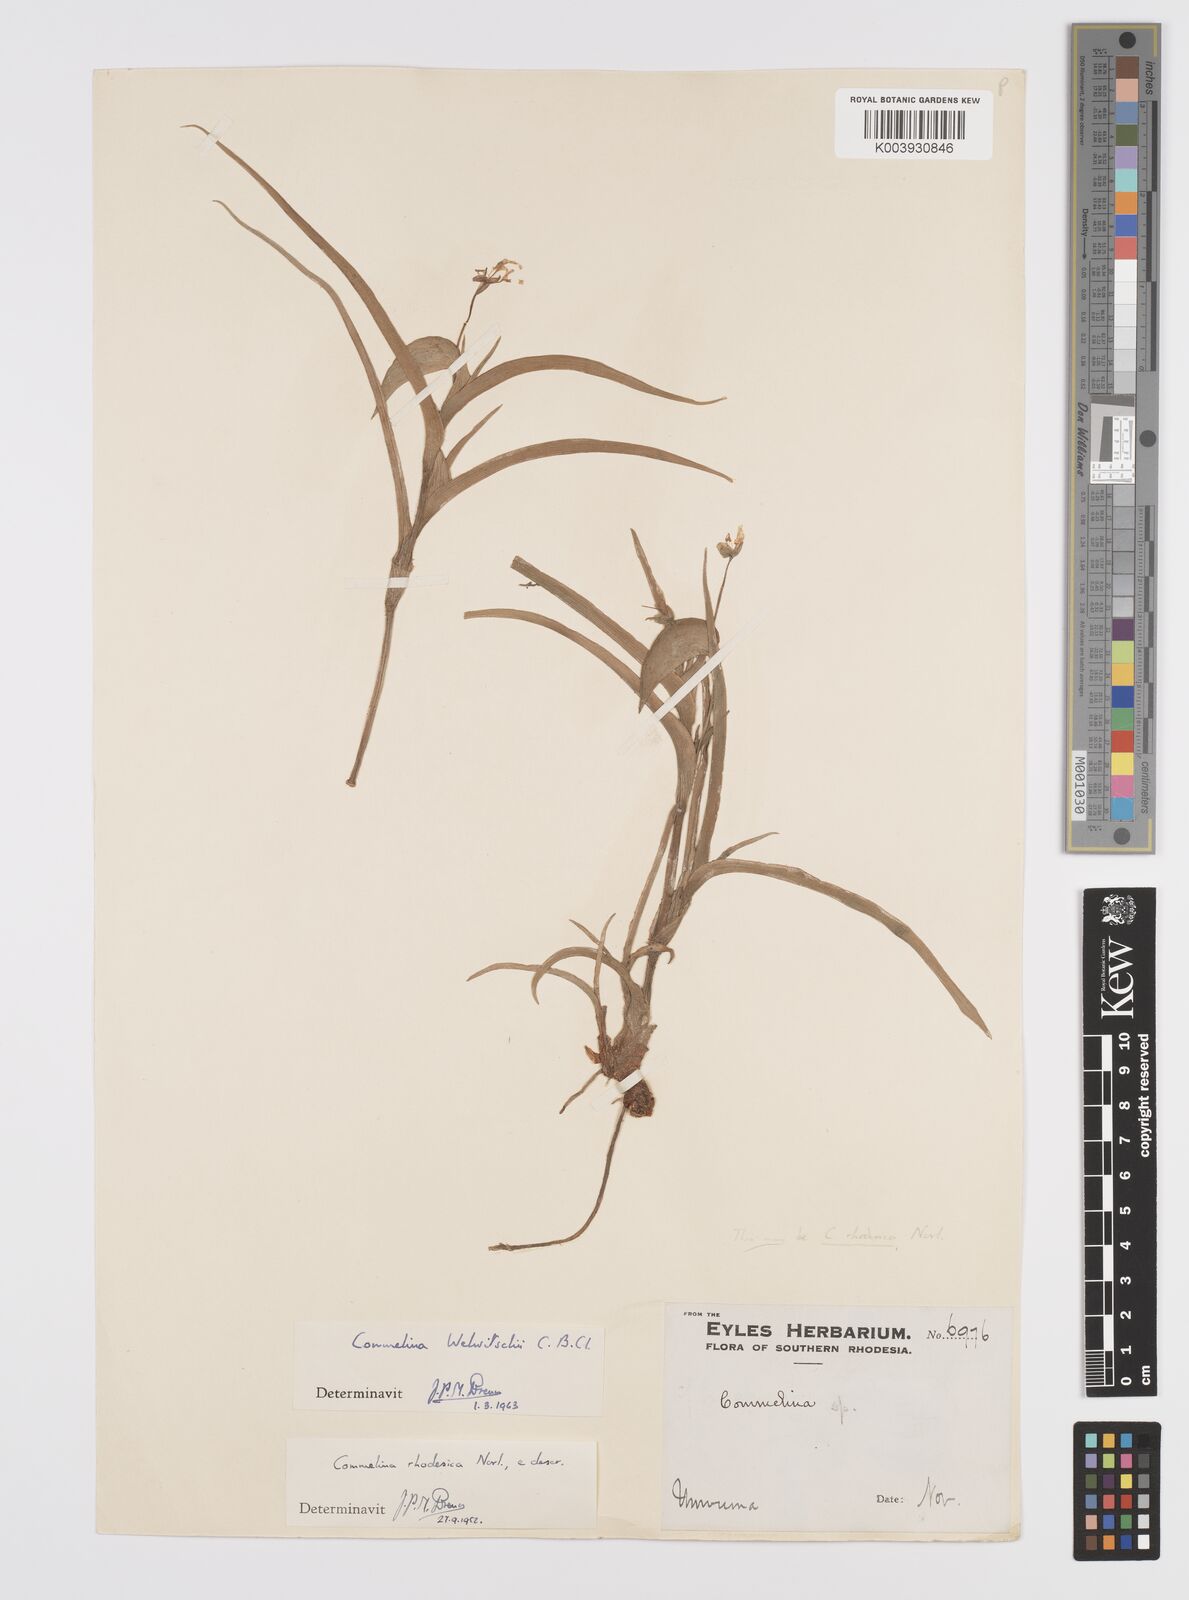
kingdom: Plantae
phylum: Tracheophyta
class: Liliopsida
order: Commelinales
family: Commelinaceae
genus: Commelina
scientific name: Commelina welwitschii
